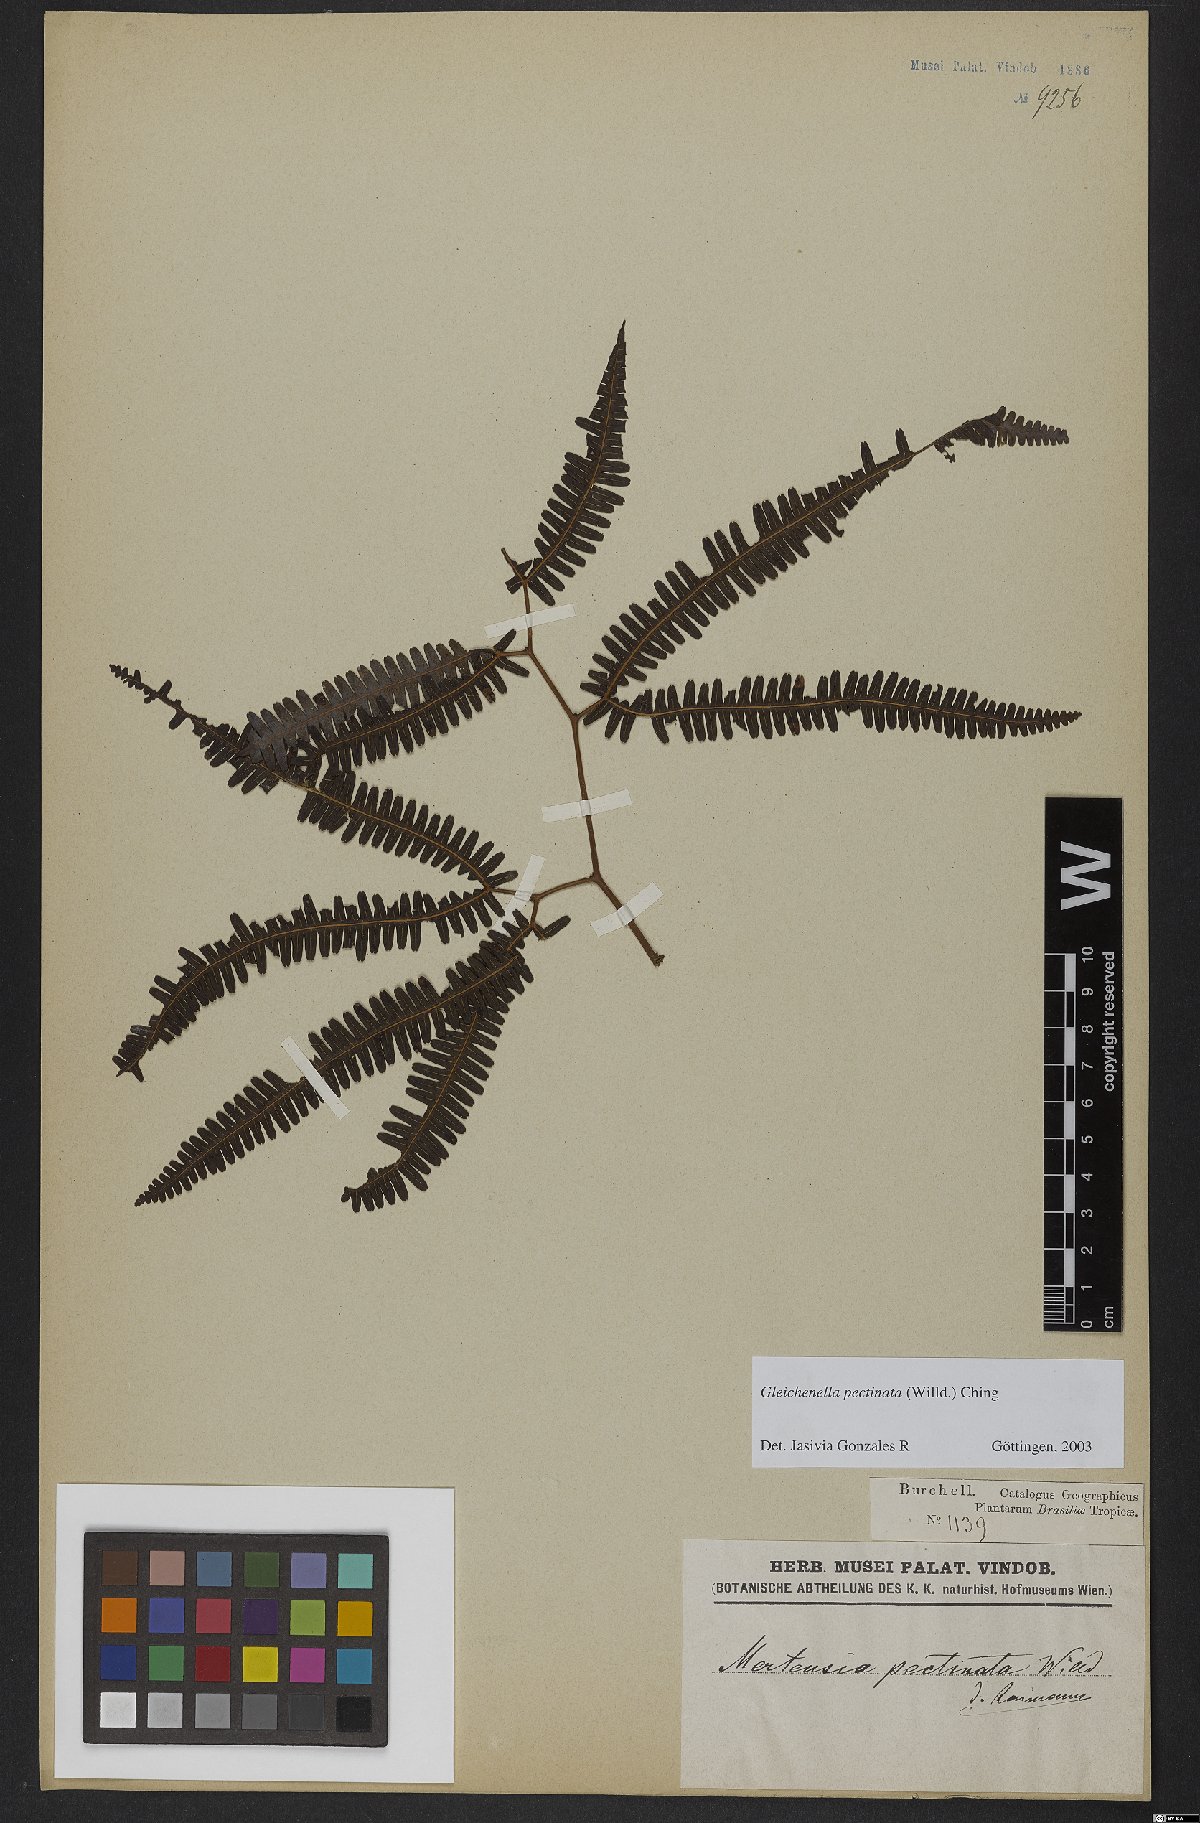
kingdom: Plantae
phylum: Tracheophyta
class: Polypodiopsida
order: Gleicheniales
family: Gleicheniaceae
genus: Gleichenella
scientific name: Gleichenella pectinata
